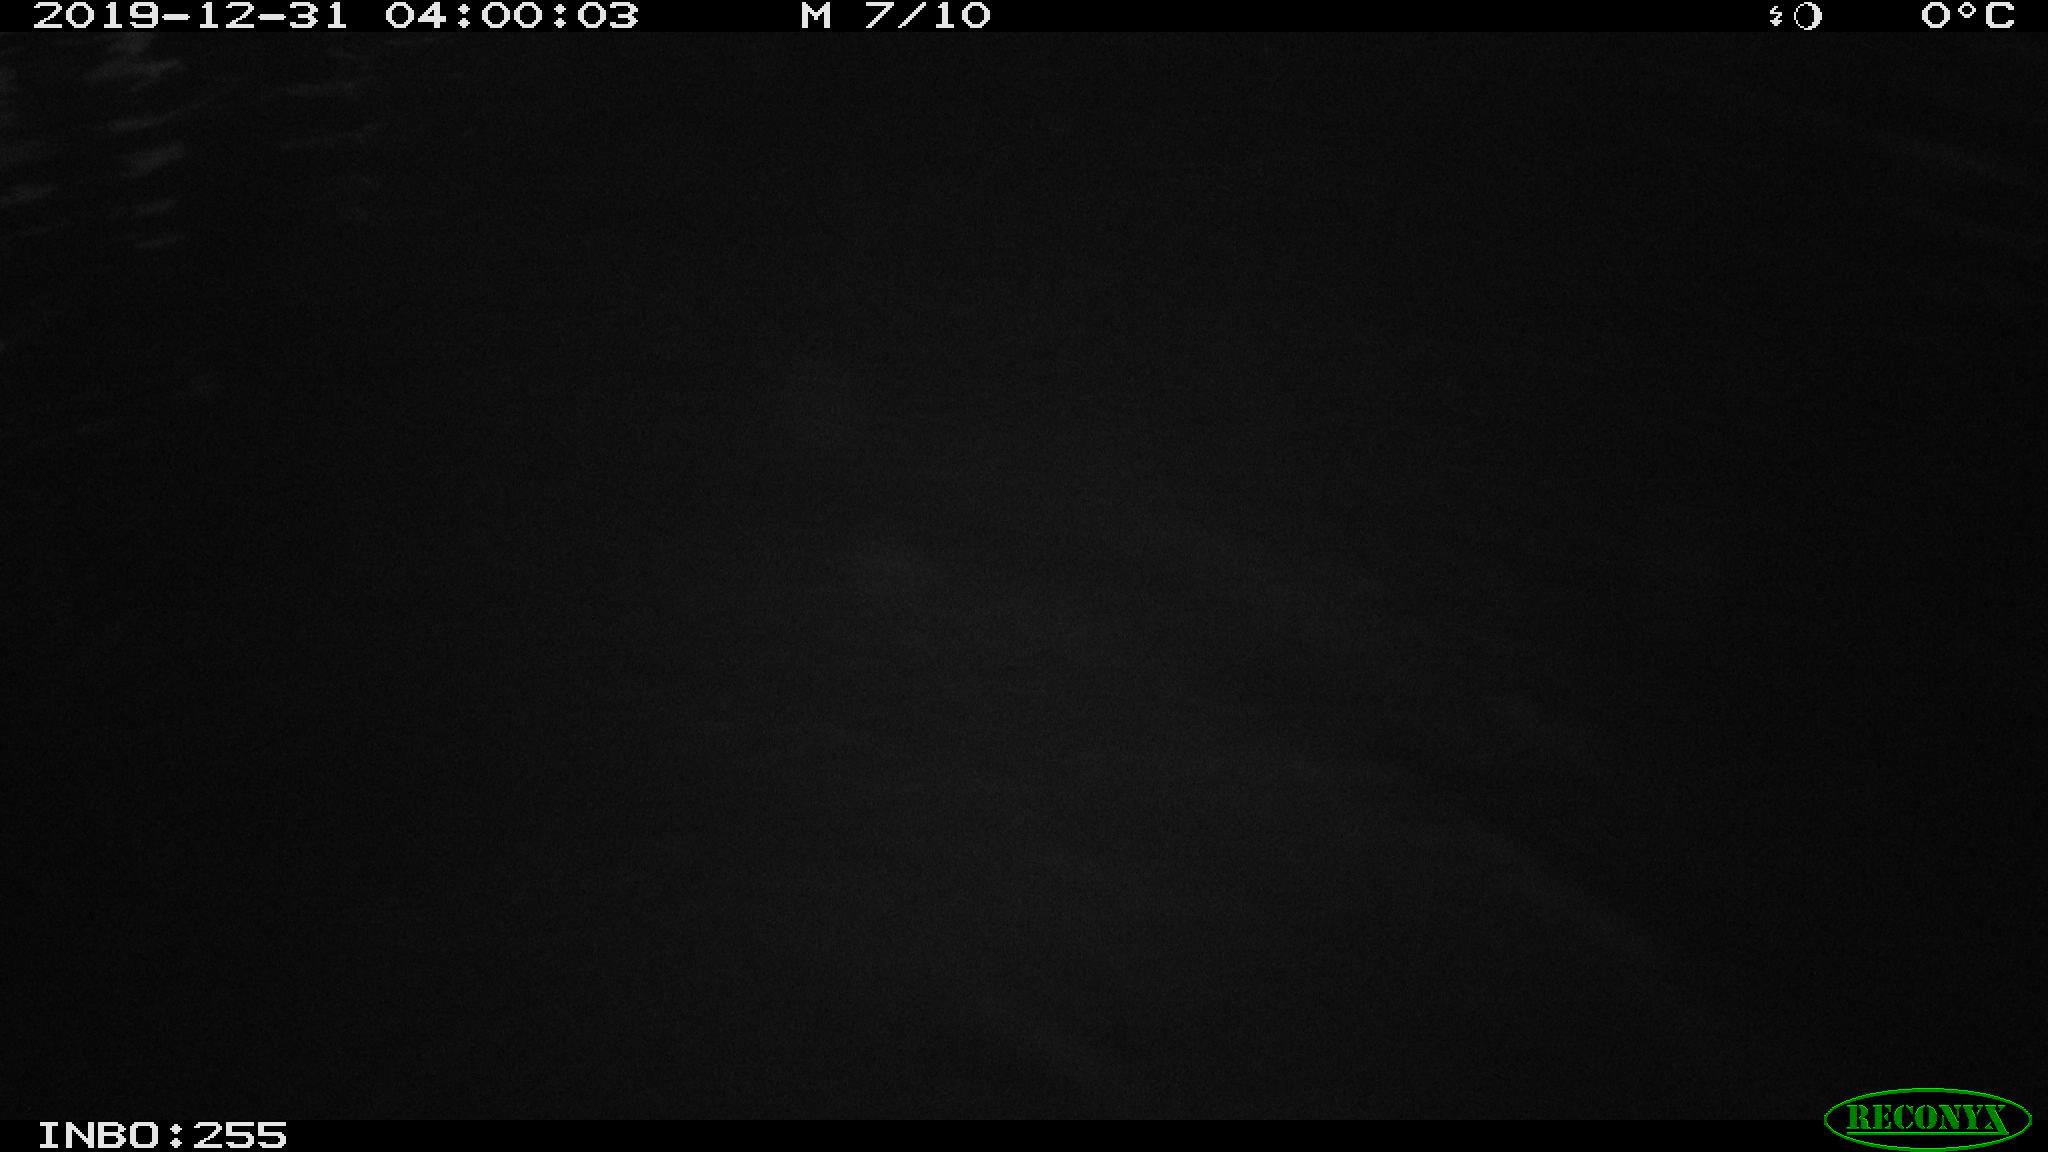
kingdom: Animalia
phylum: Chordata
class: Aves
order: Anseriformes
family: Anatidae
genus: Anas
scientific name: Anas platyrhynchos
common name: Mallard
